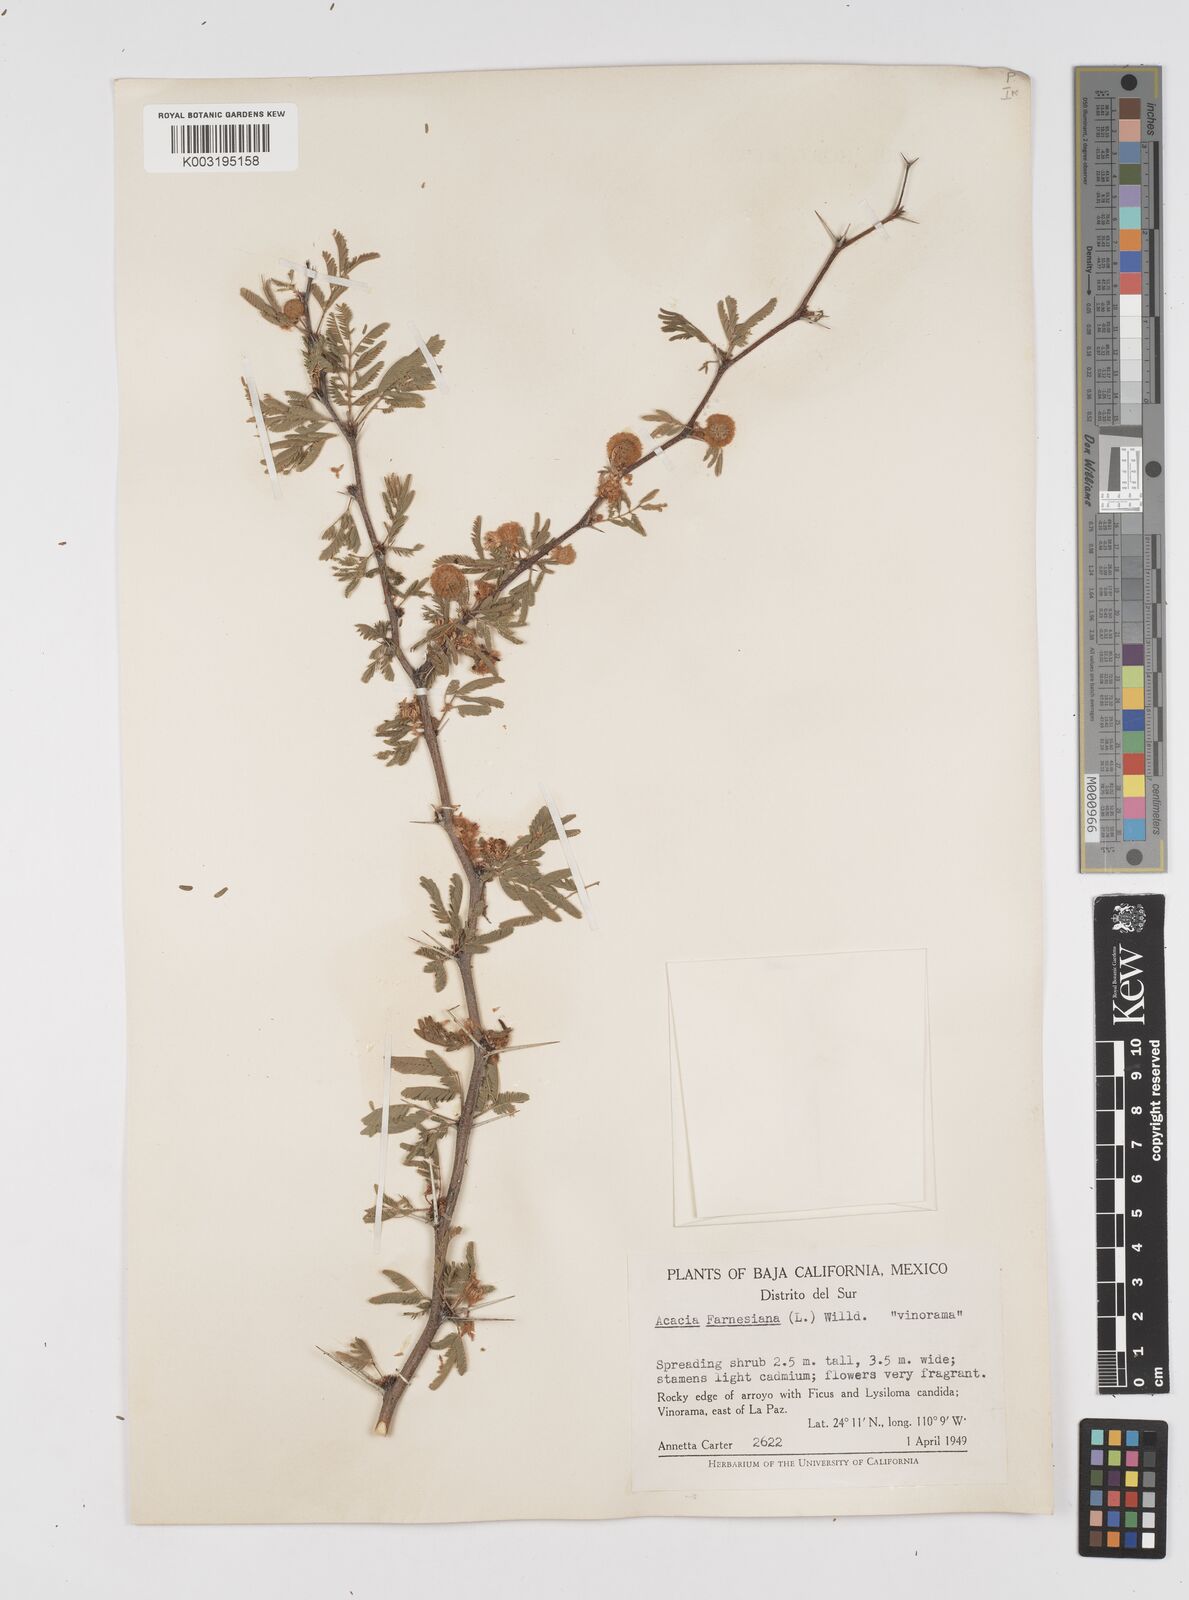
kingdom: Plantae
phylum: Tracheophyta
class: Magnoliopsida
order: Fabales
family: Fabaceae
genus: Vachellia
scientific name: Vachellia farnesiana
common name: Sweet acacia
